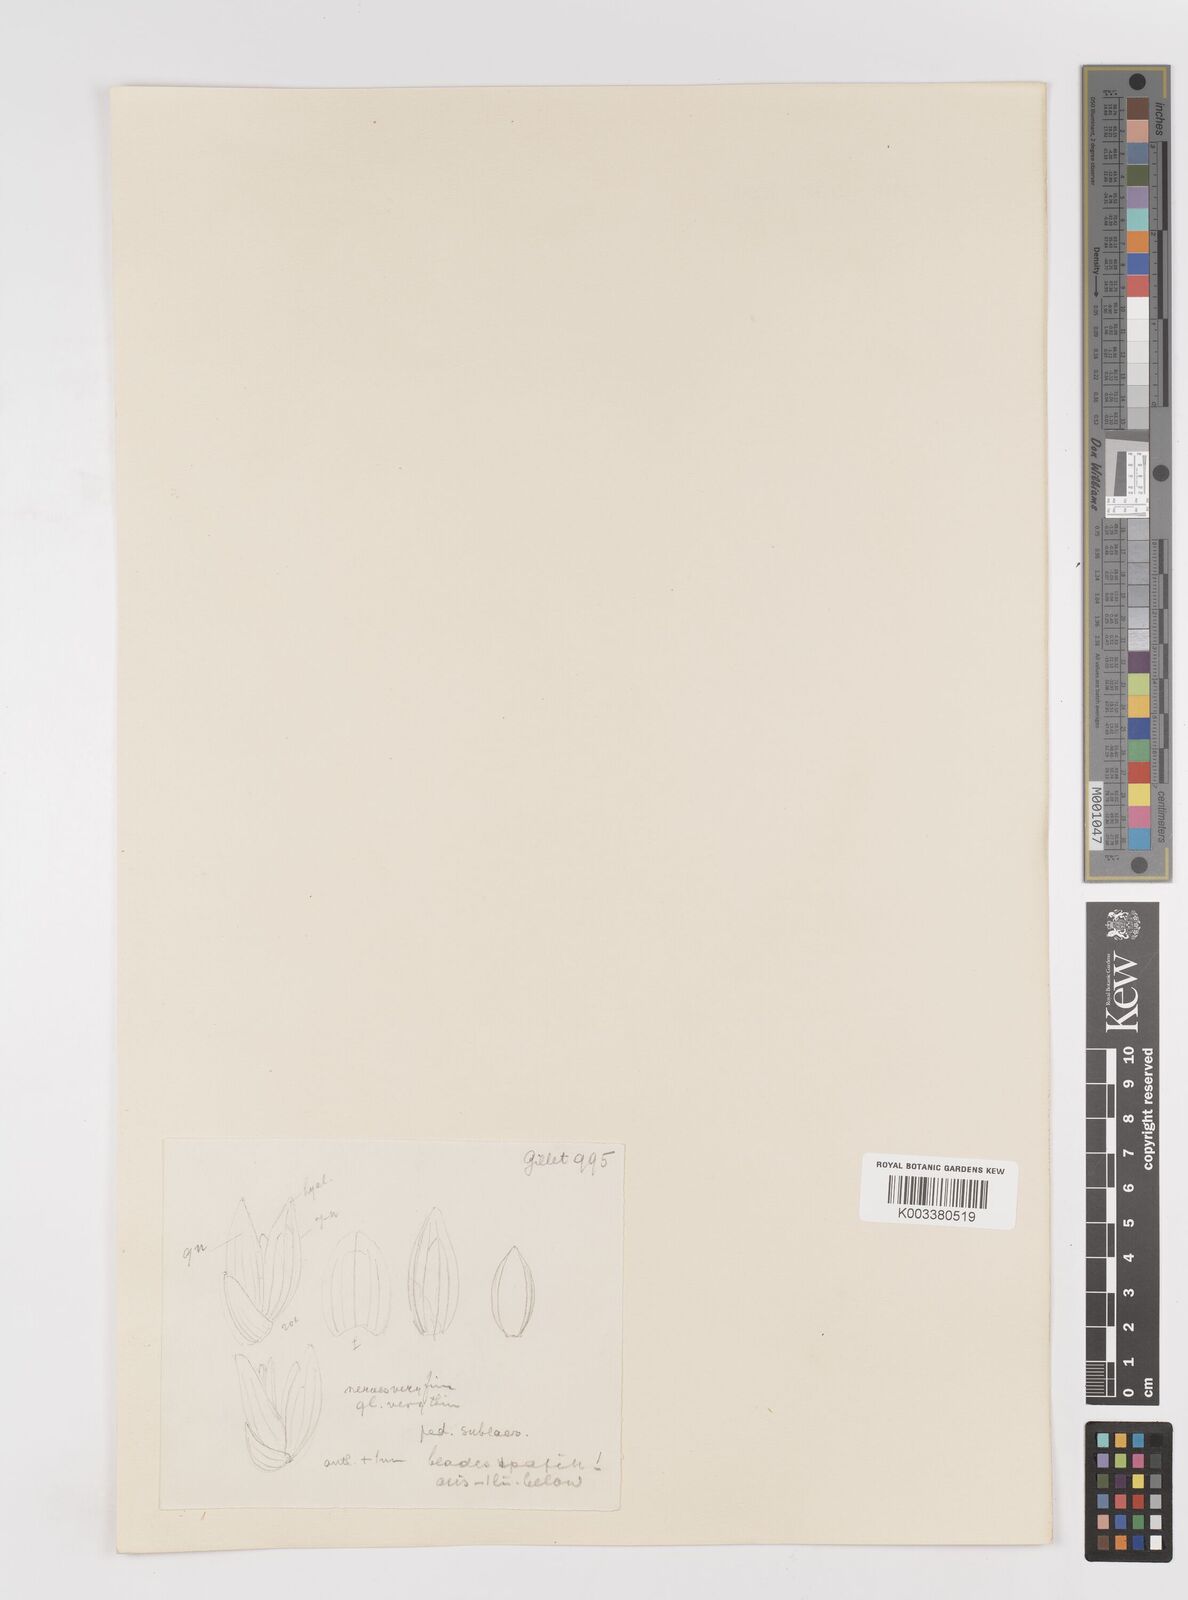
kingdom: Plantae
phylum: Tracheophyta
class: Liliopsida
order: Poales
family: Poaceae
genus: Sacciolepis
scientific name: Sacciolepis africana
